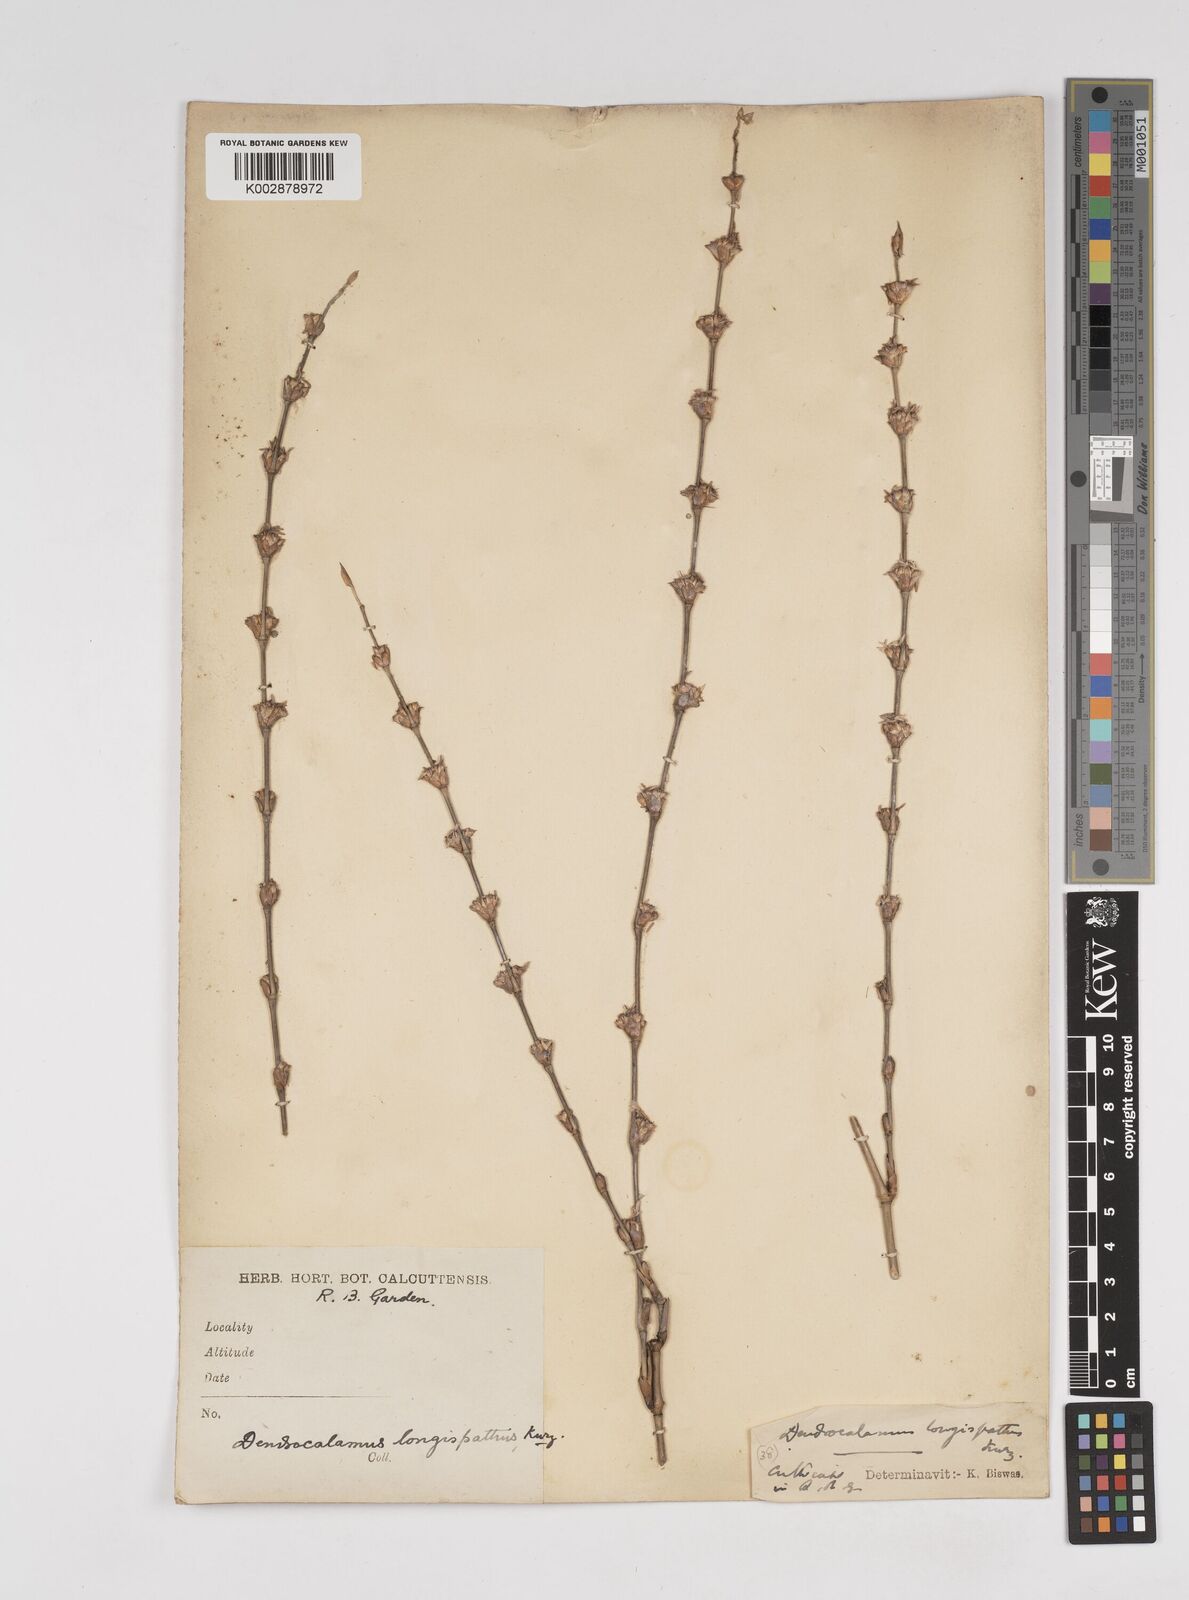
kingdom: Plantae
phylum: Tracheophyta
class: Liliopsida
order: Poales
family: Poaceae
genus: Dendrocalamus
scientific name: Dendrocalamus longispathus
